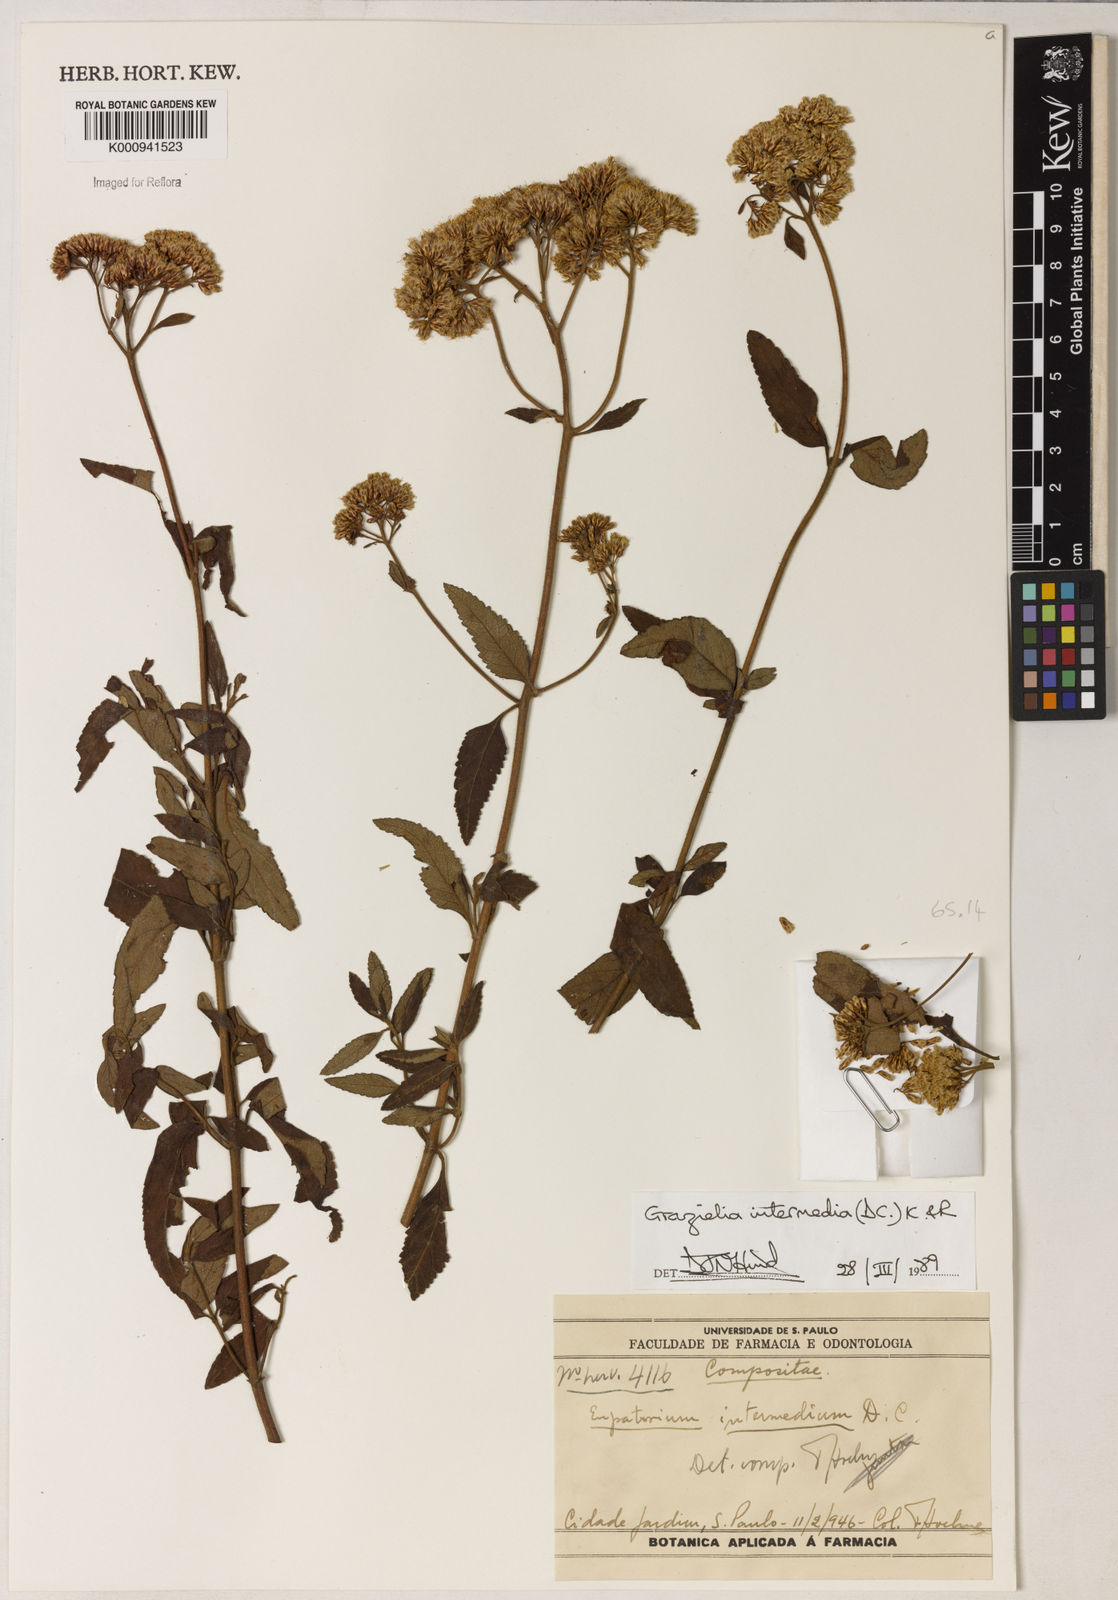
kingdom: Plantae
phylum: Tracheophyta
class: Magnoliopsida
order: Asterales
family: Asteraceae
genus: Grazielia
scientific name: Grazielia intermedia
